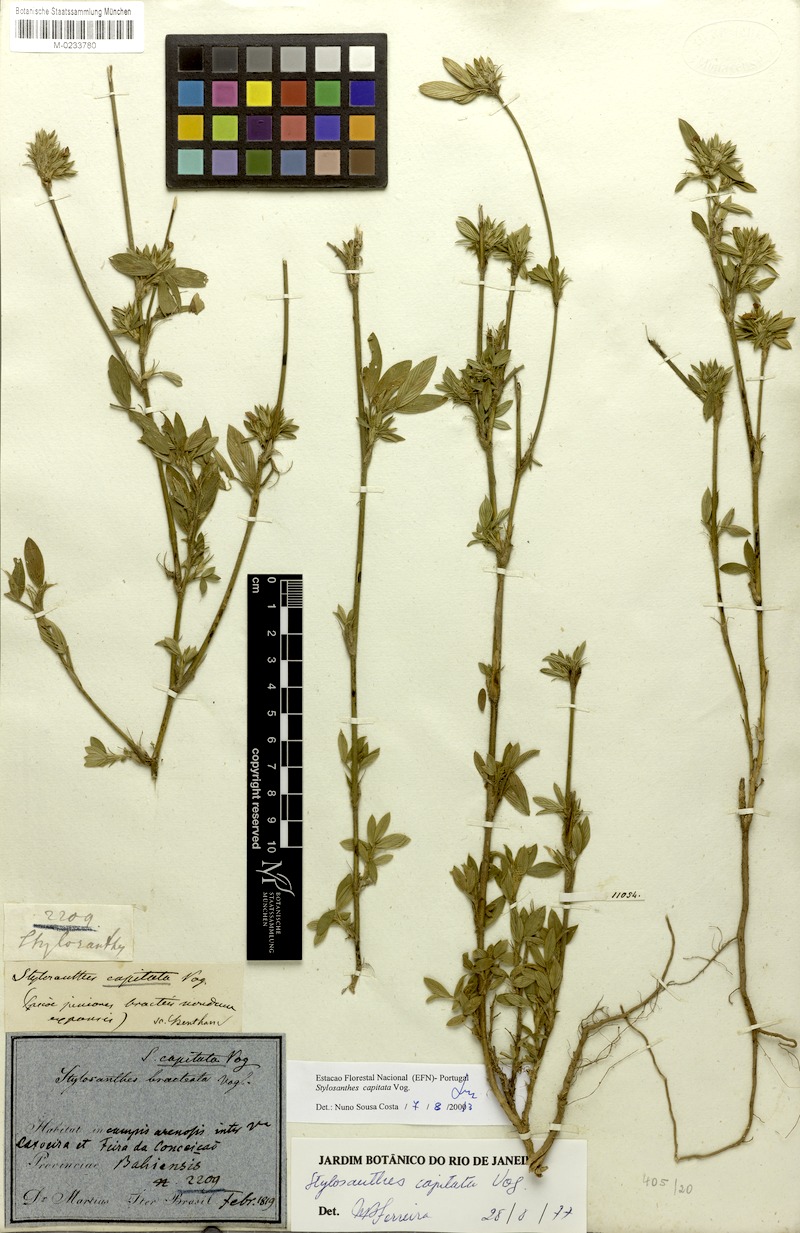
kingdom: Plantae
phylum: Tracheophyta
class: Magnoliopsida
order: Fabales
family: Fabaceae
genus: Stylosanthes
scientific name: Stylosanthes capitata
